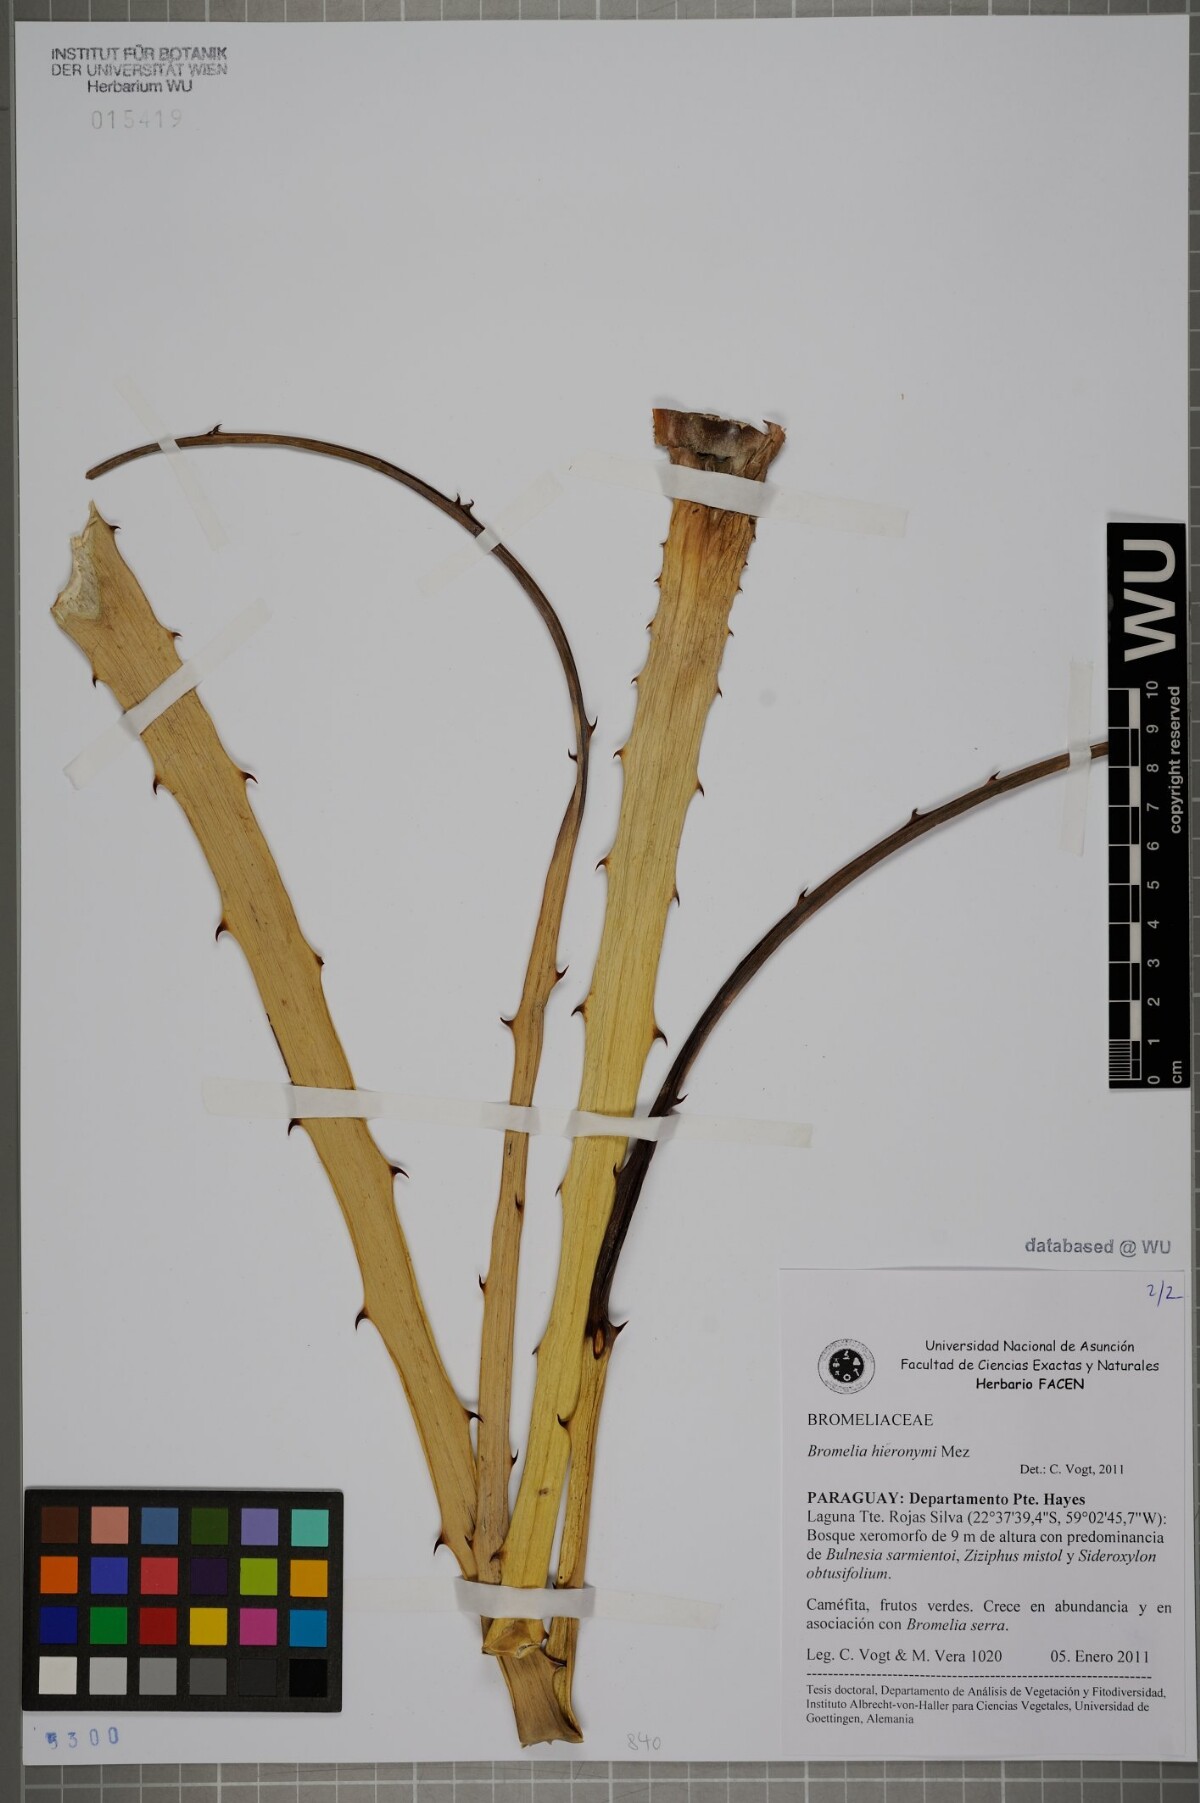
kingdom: Plantae
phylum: Tracheophyta
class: Liliopsida
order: Poales
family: Bromeliaceae
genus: Deinacanthon
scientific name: Deinacanthon urbanianum
